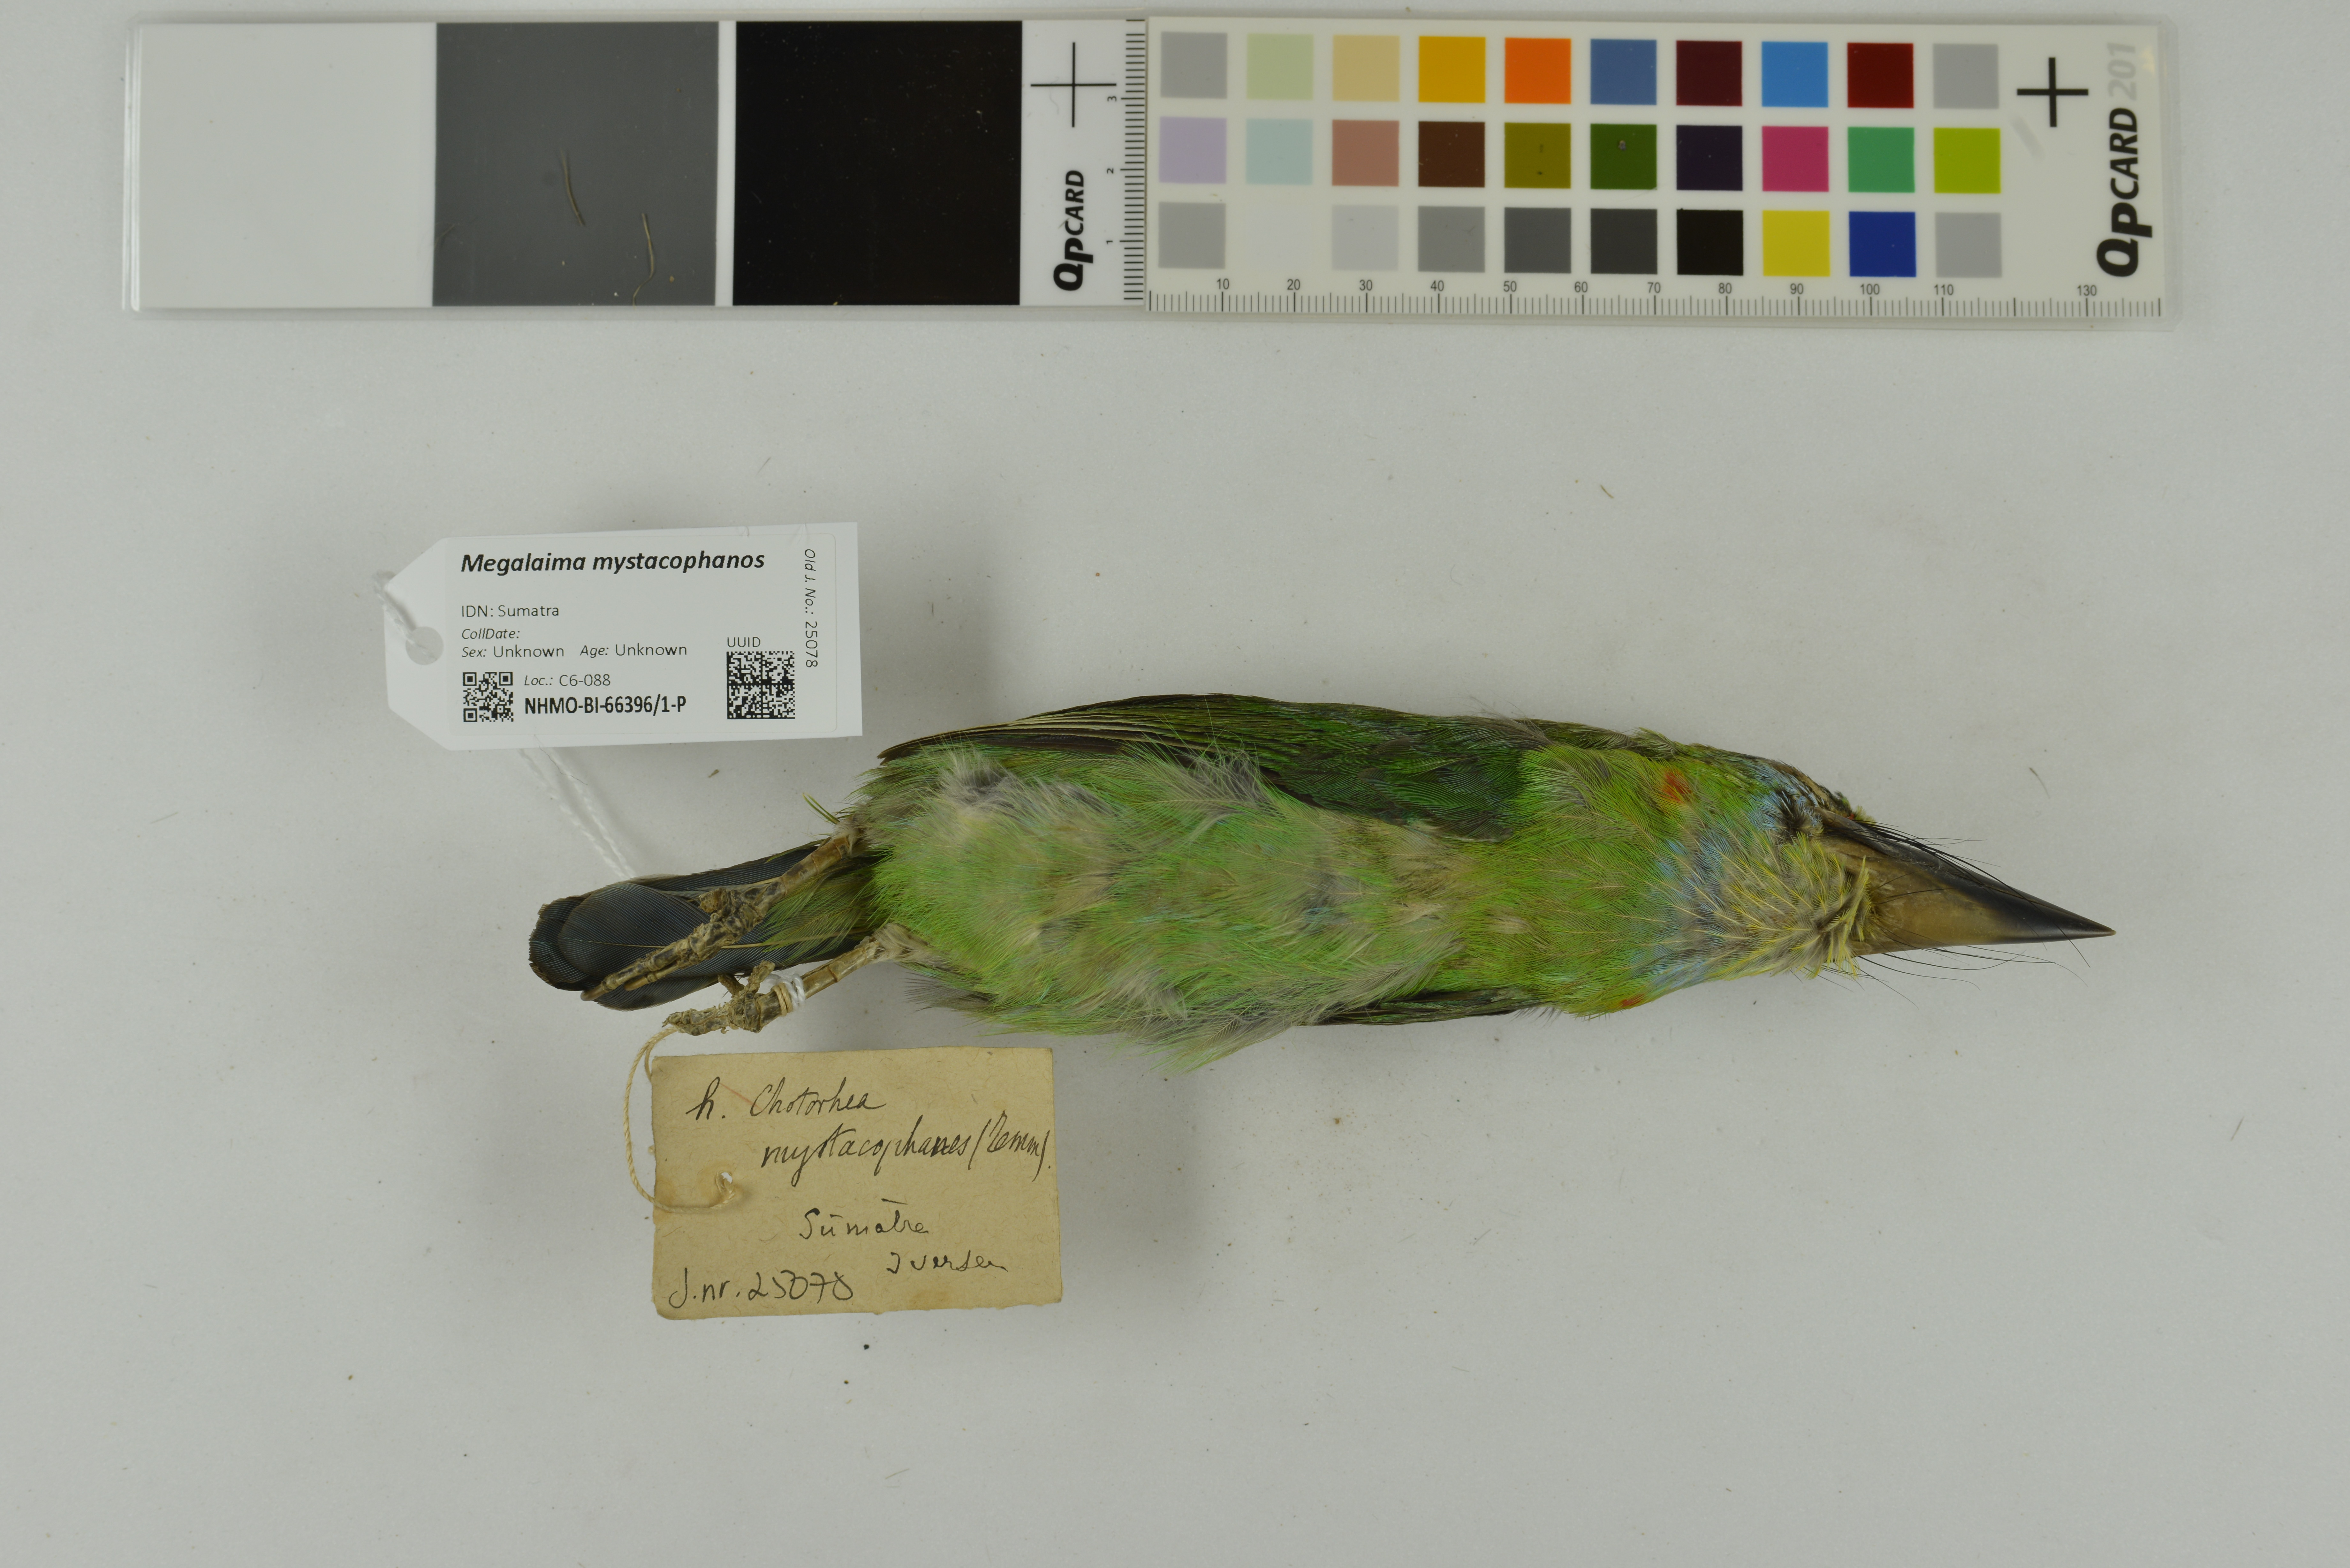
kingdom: Animalia
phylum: Chordata
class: Aves
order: Piciformes
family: Megalaimidae
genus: Psilopogon
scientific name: Psilopogon mystacophanos
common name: Red-throated barbet
